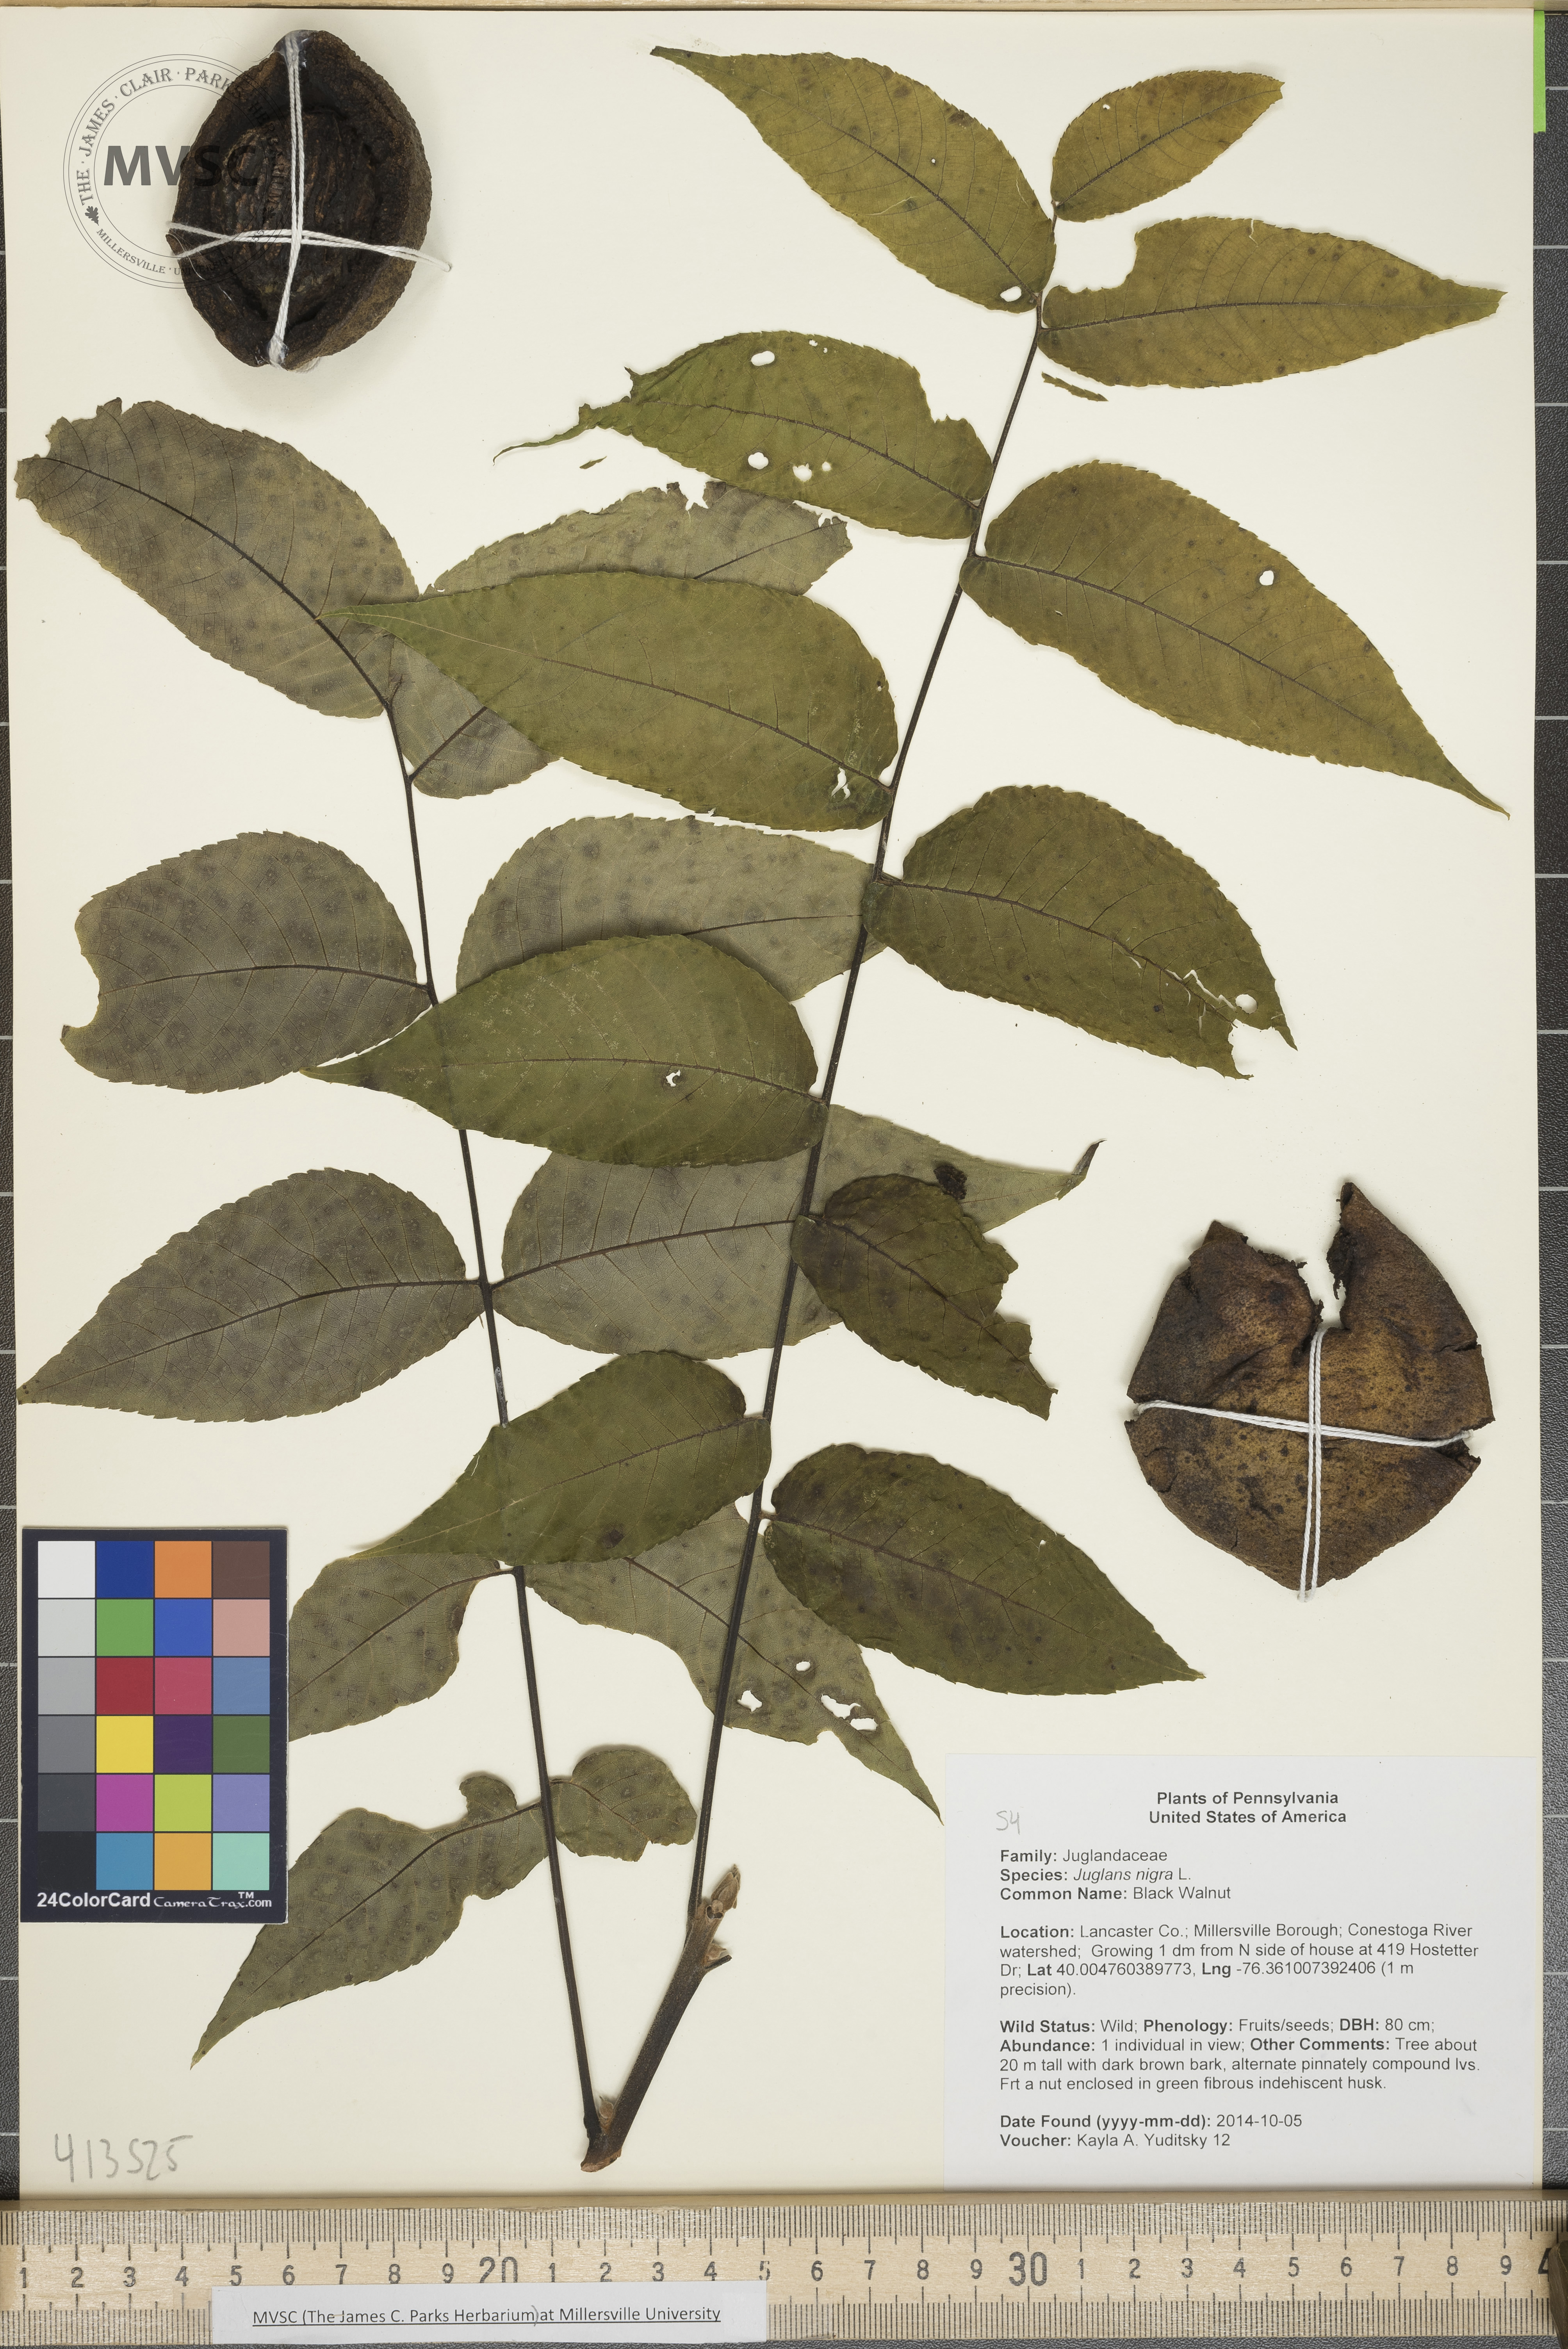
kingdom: Plantae
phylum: Tracheophyta
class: Magnoliopsida
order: Fagales
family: Juglandaceae
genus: Juglans
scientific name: Juglans nigra
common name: Black Walnut
